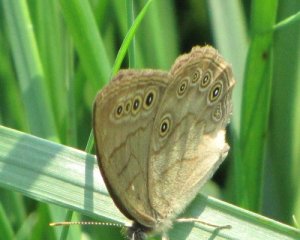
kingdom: Animalia
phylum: Arthropoda
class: Insecta
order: Lepidoptera
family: Nymphalidae
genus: Lethe
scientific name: Lethe eurydice
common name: Eyed Brown
